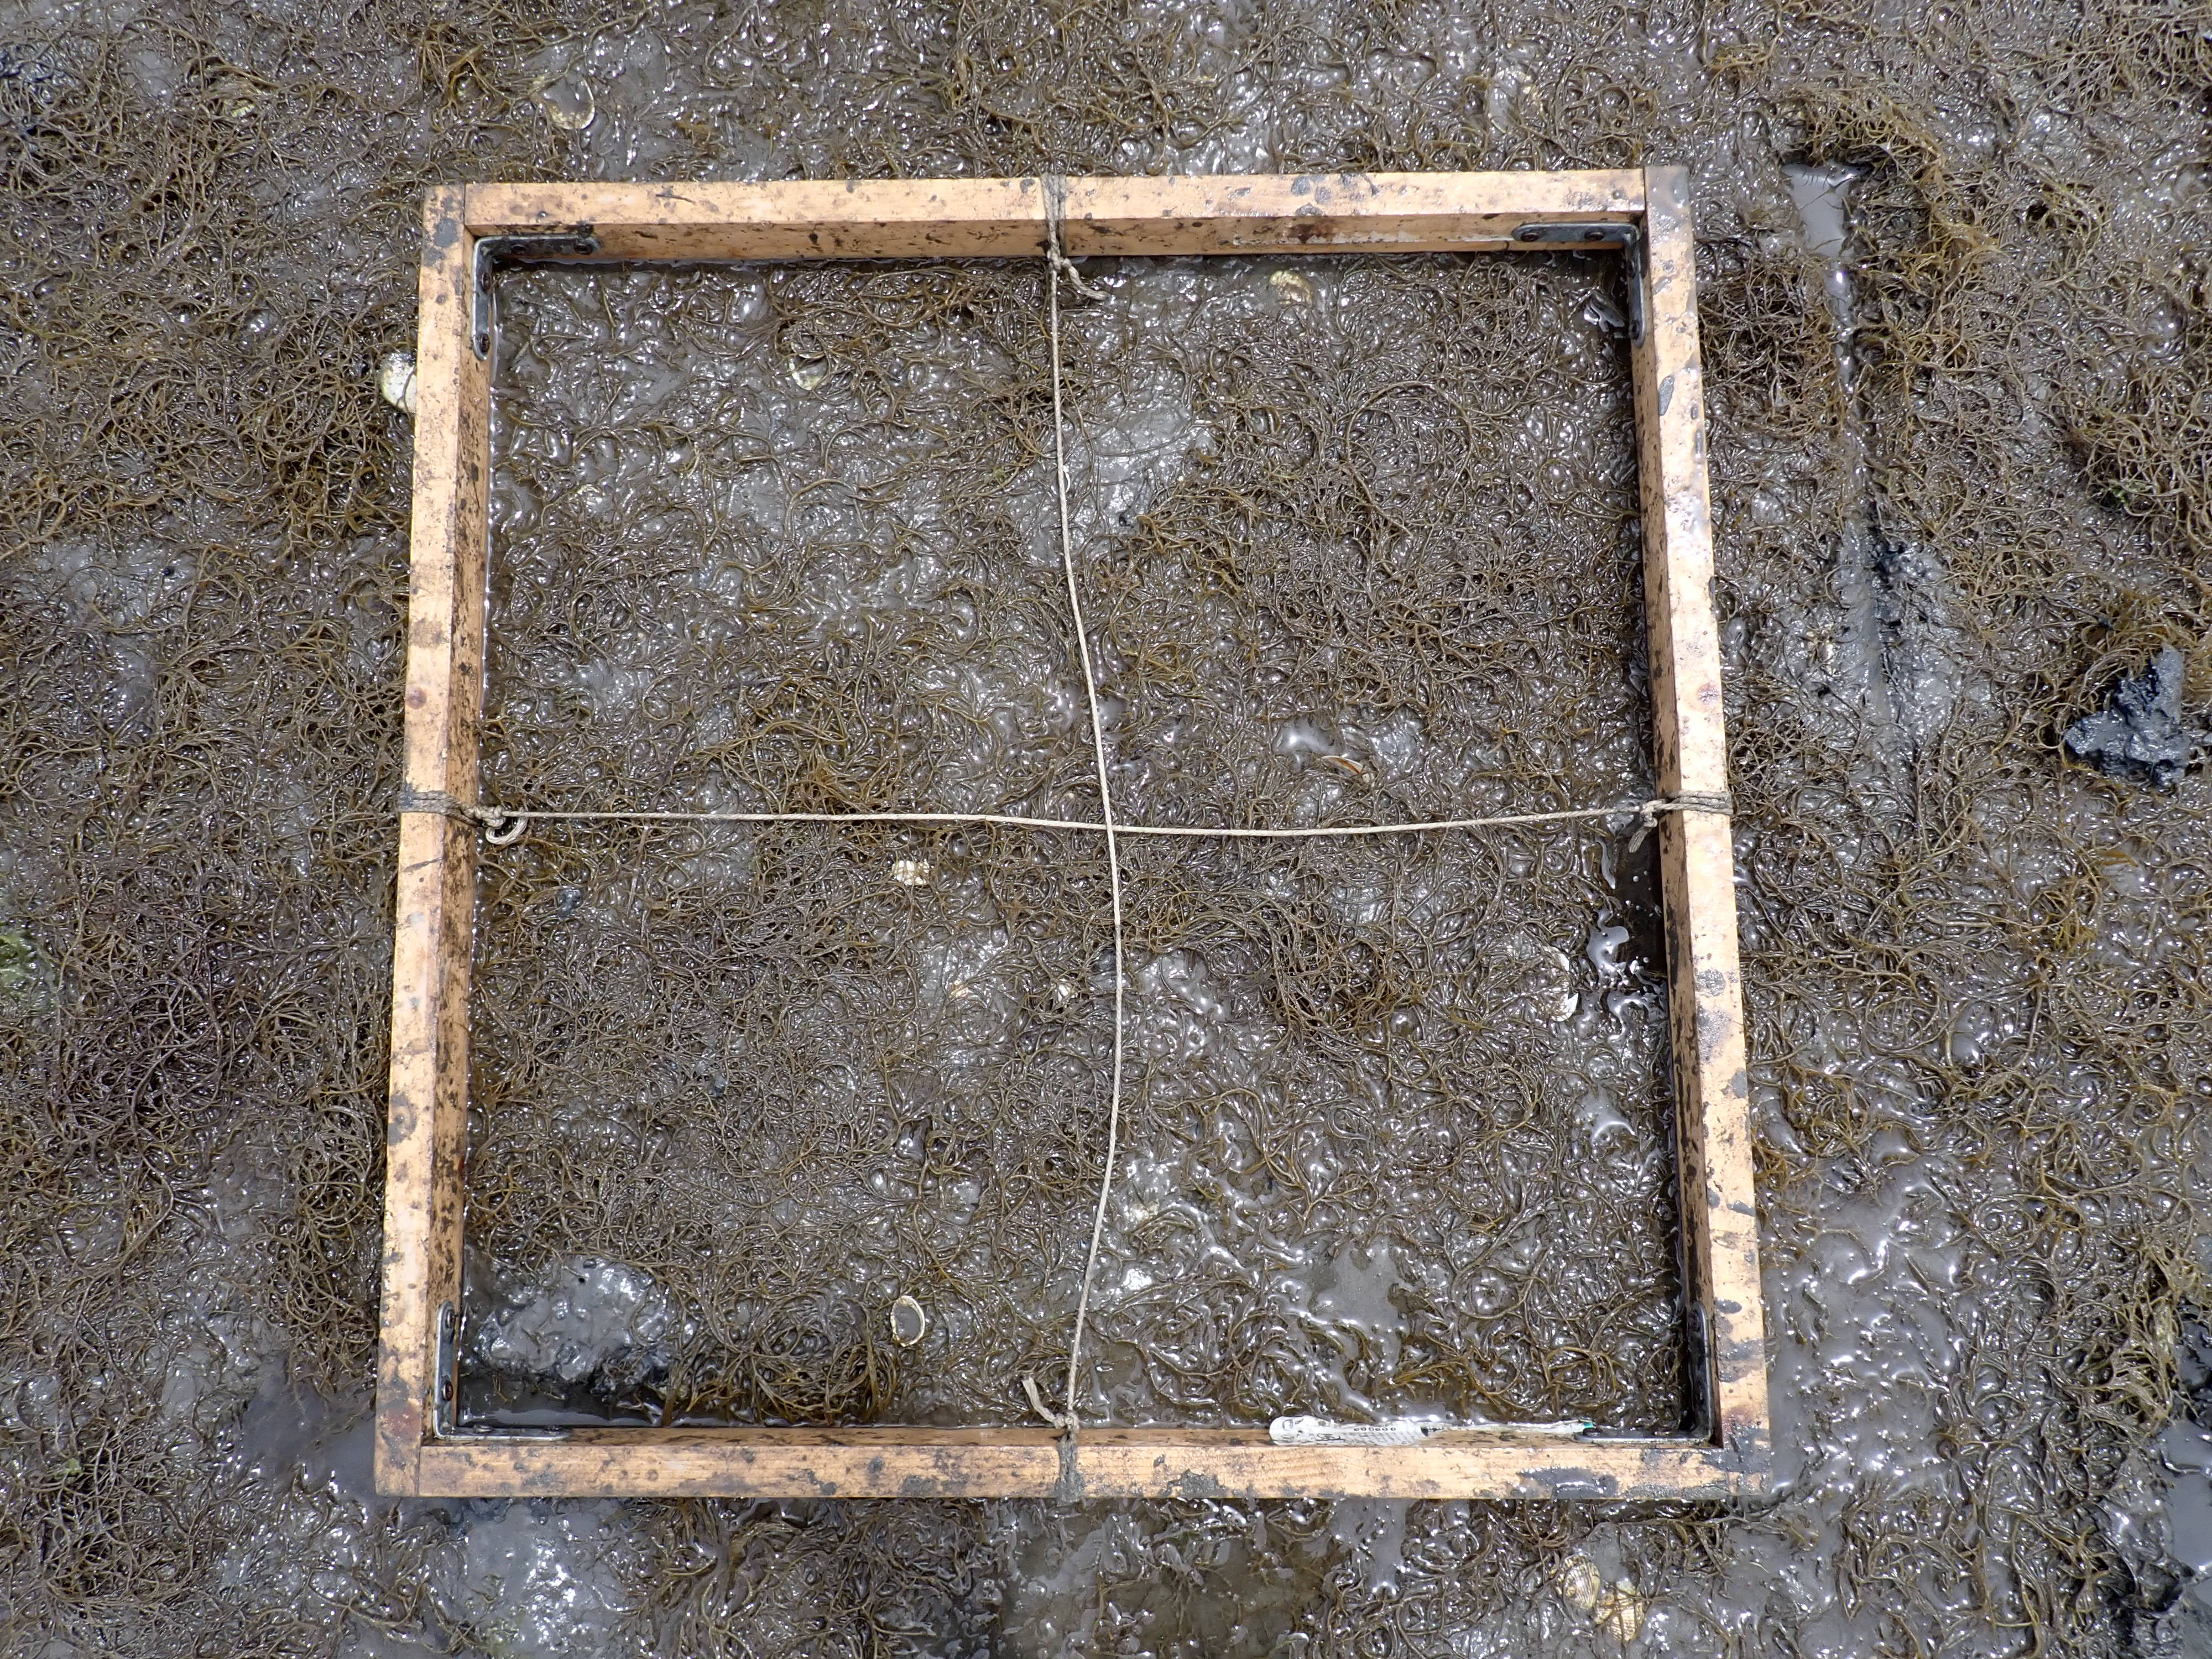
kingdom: Plantae
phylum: Rhodophyta
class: Florideophyceae
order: Gracilariales
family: Gracilariaceae
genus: Gracilaria
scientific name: Gracilaria vermiculophylla
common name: Algae
